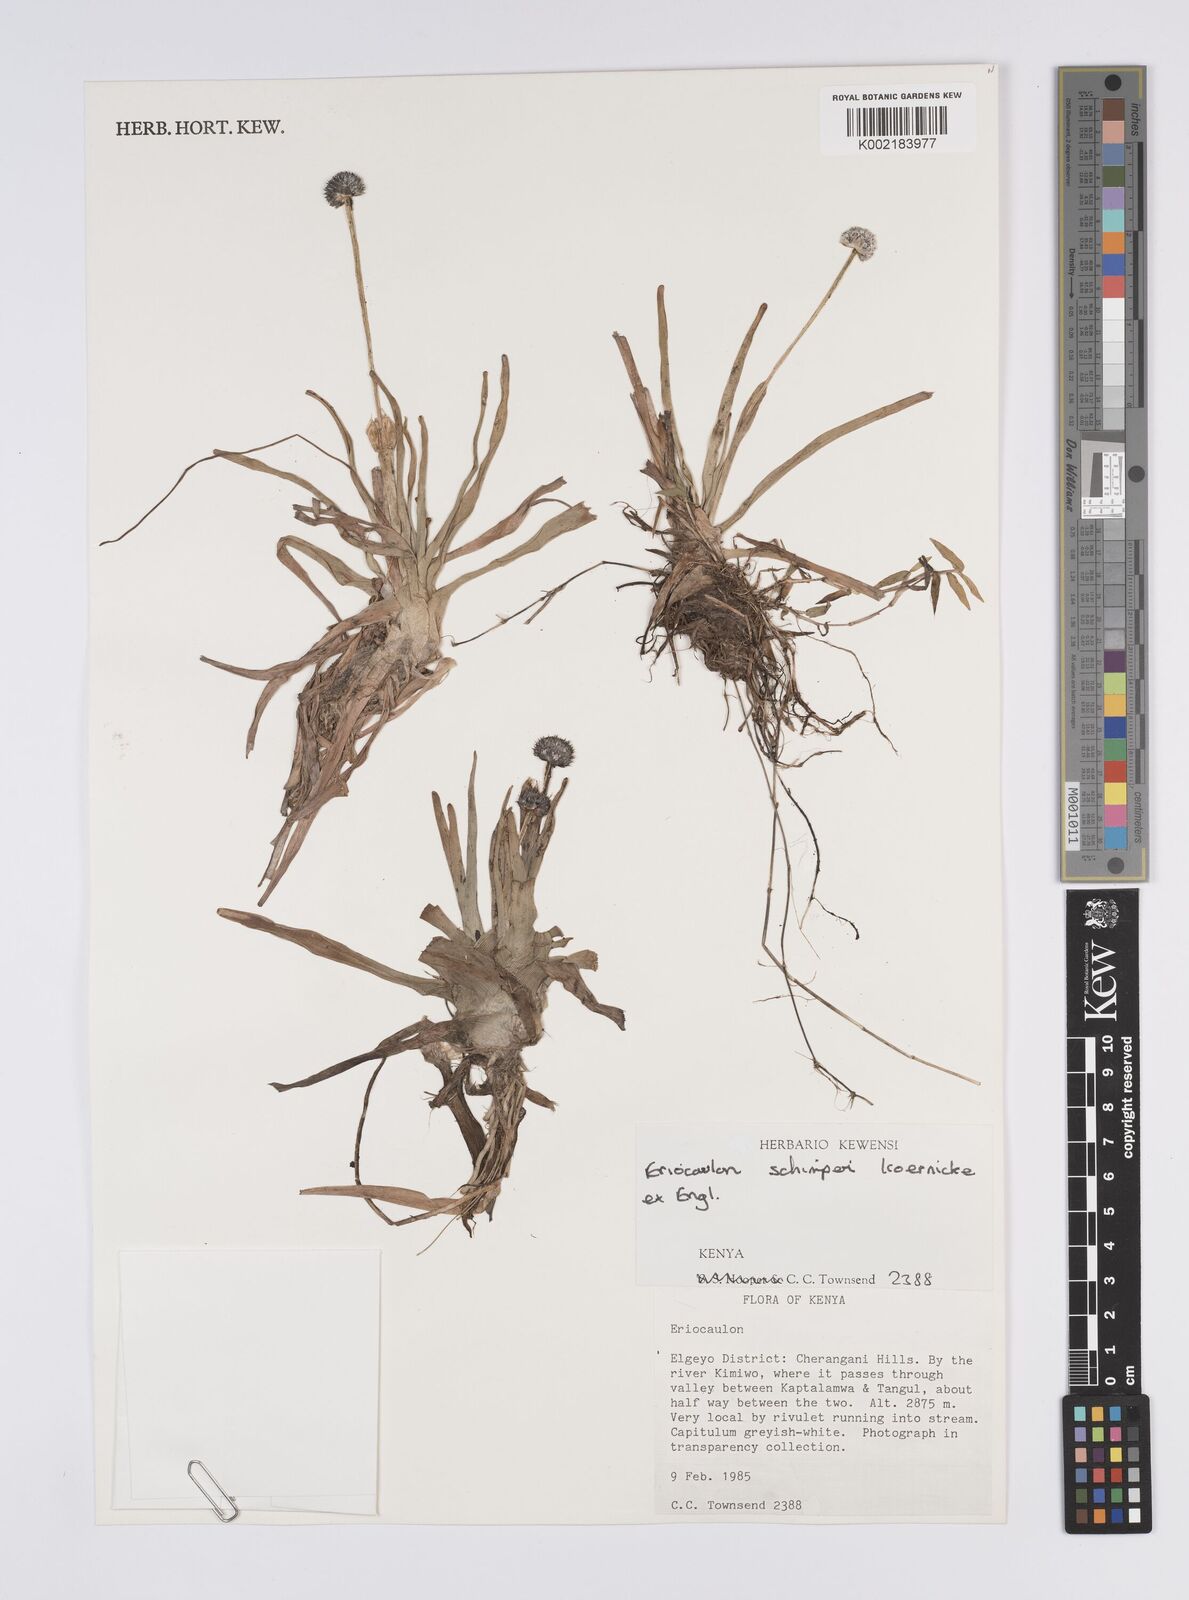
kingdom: Plantae
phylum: Tracheophyta
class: Liliopsida
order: Poales
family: Eriocaulaceae
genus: Eriocaulon
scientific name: Eriocaulon schimperi
